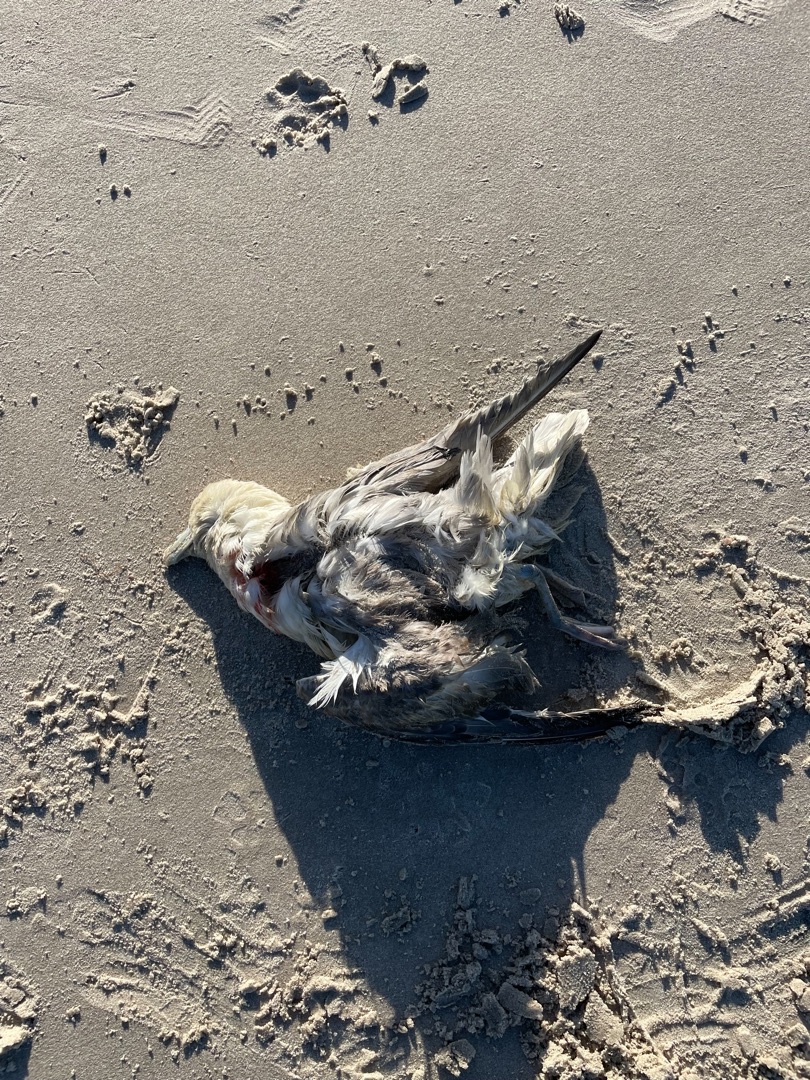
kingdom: Animalia
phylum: Chordata
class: Aves
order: Procellariiformes
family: Procellariidae
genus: Fulmarus
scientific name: Fulmarus glacialis
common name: Mallemuk
